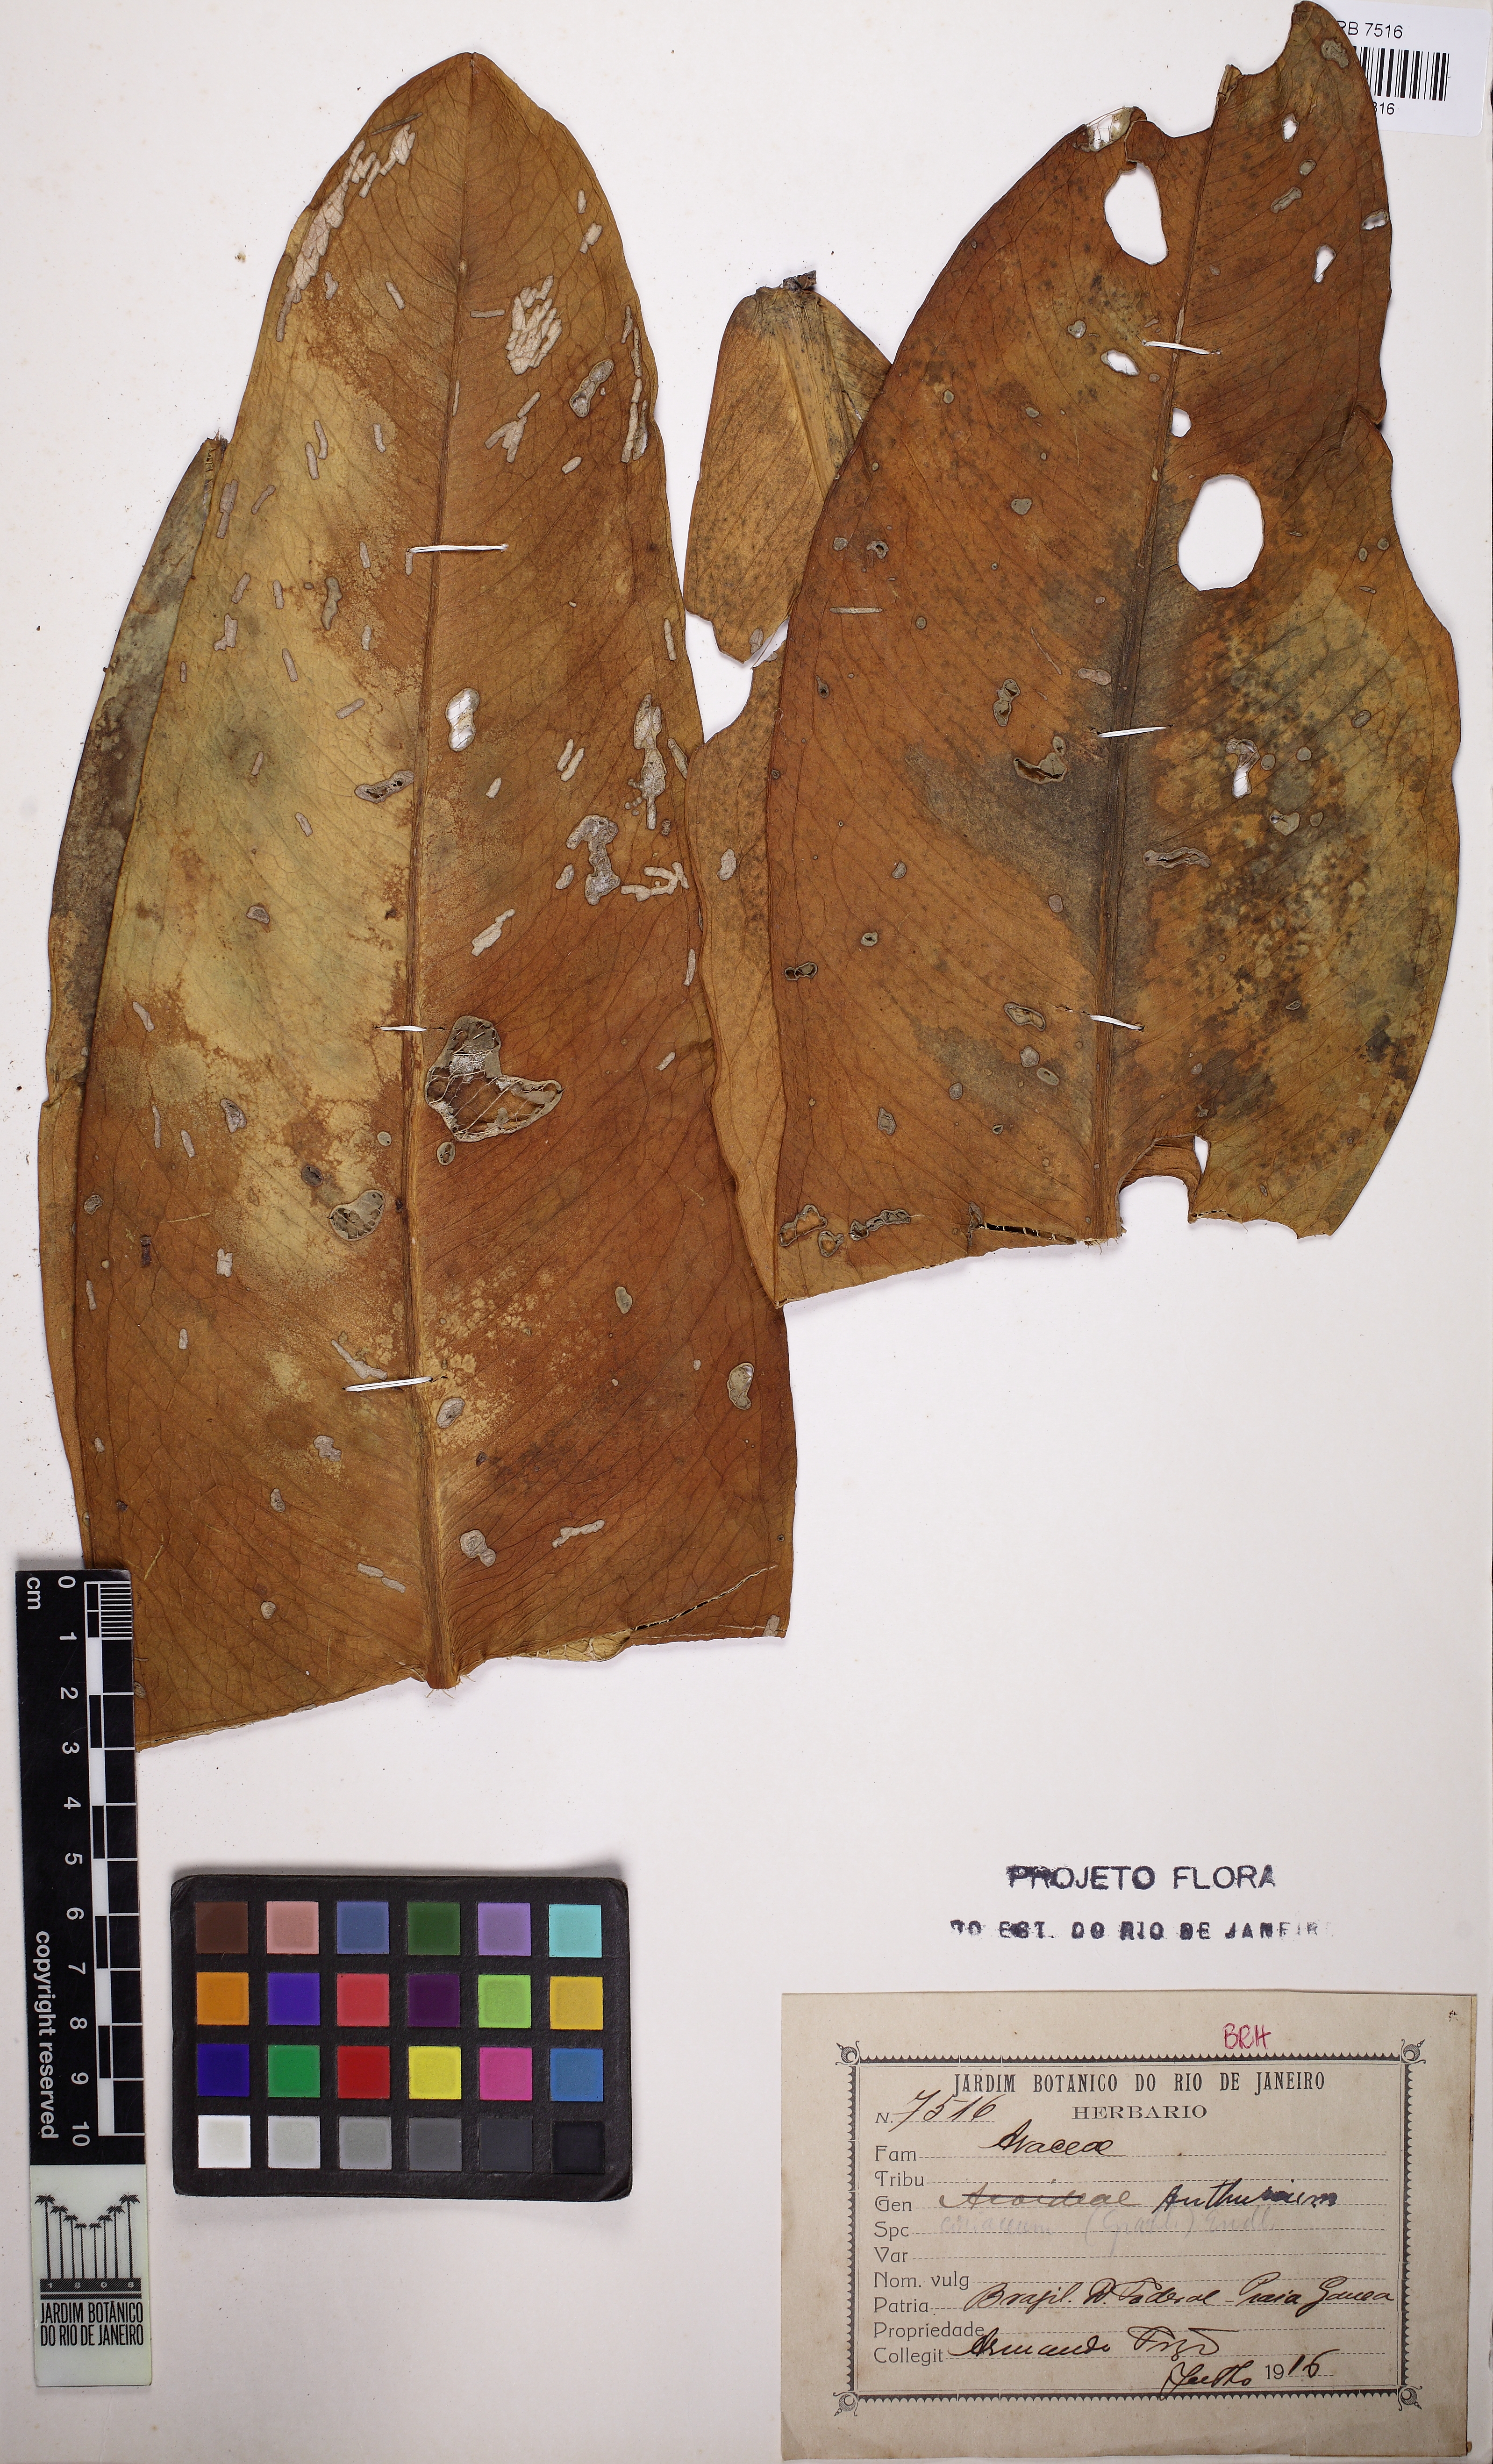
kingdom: Plantae
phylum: Tracheophyta
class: Liliopsida
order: Alismatales
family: Araceae
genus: Anthurium
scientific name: Anthurium coriaceum
